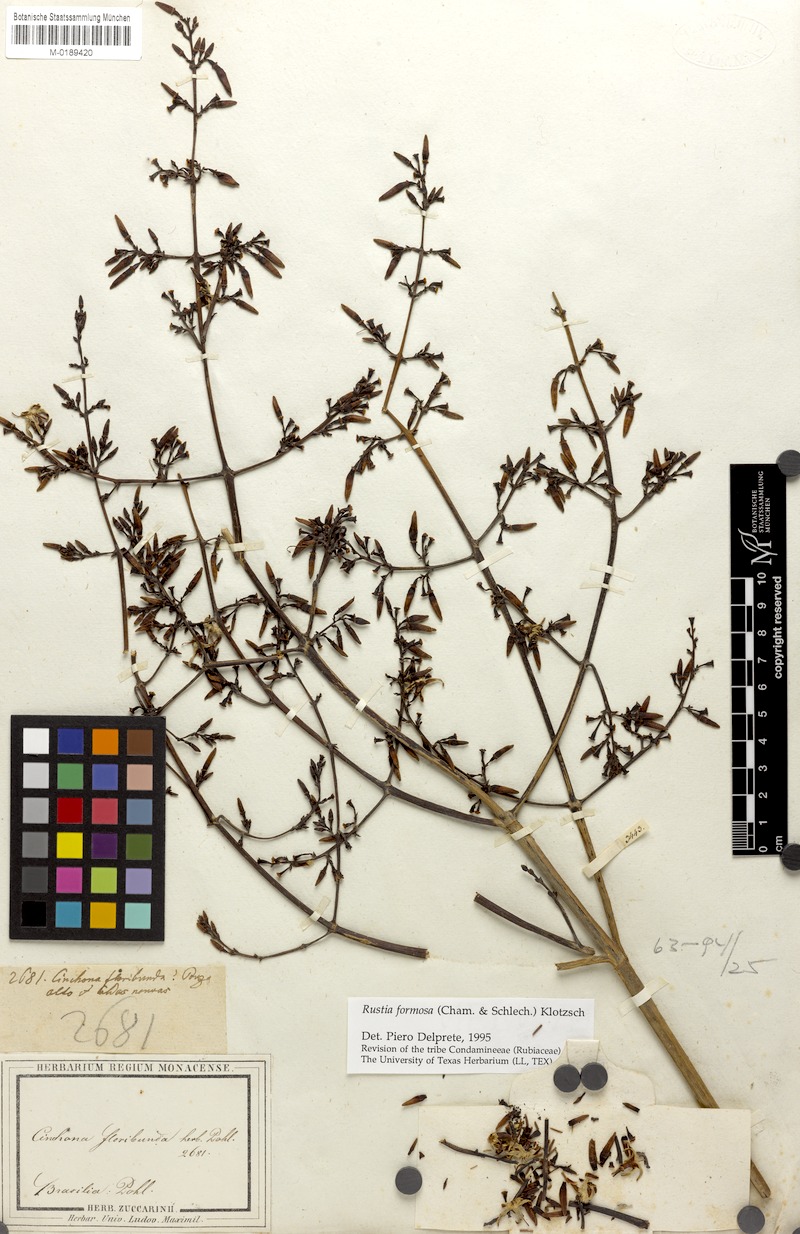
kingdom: Plantae
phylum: Tracheophyta
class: Magnoliopsida
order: Gentianales
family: Rubiaceae
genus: Rustia
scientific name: Rustia formosa
